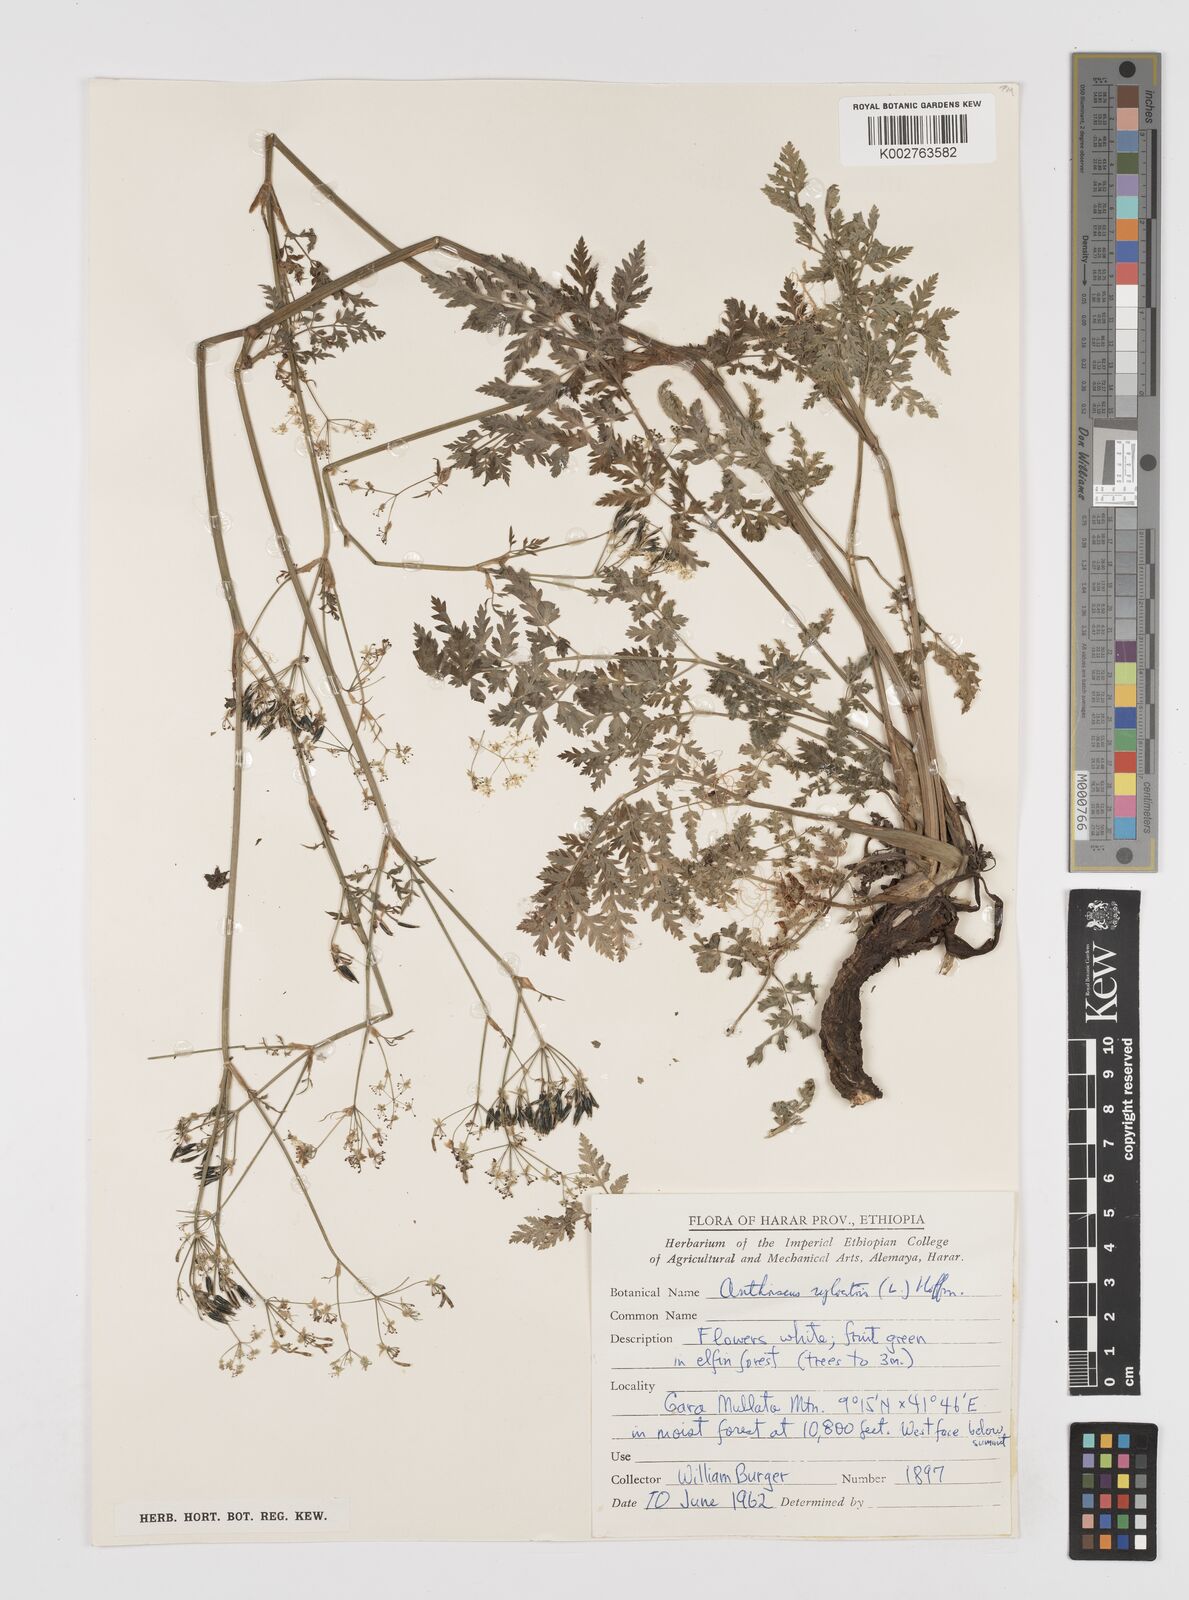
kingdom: Plantae
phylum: Tracheophyta
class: Magnoliopsida
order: Apiales
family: Apiaceae
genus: Anthriscus
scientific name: Anthriscus sylvestris
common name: Cow parsley
